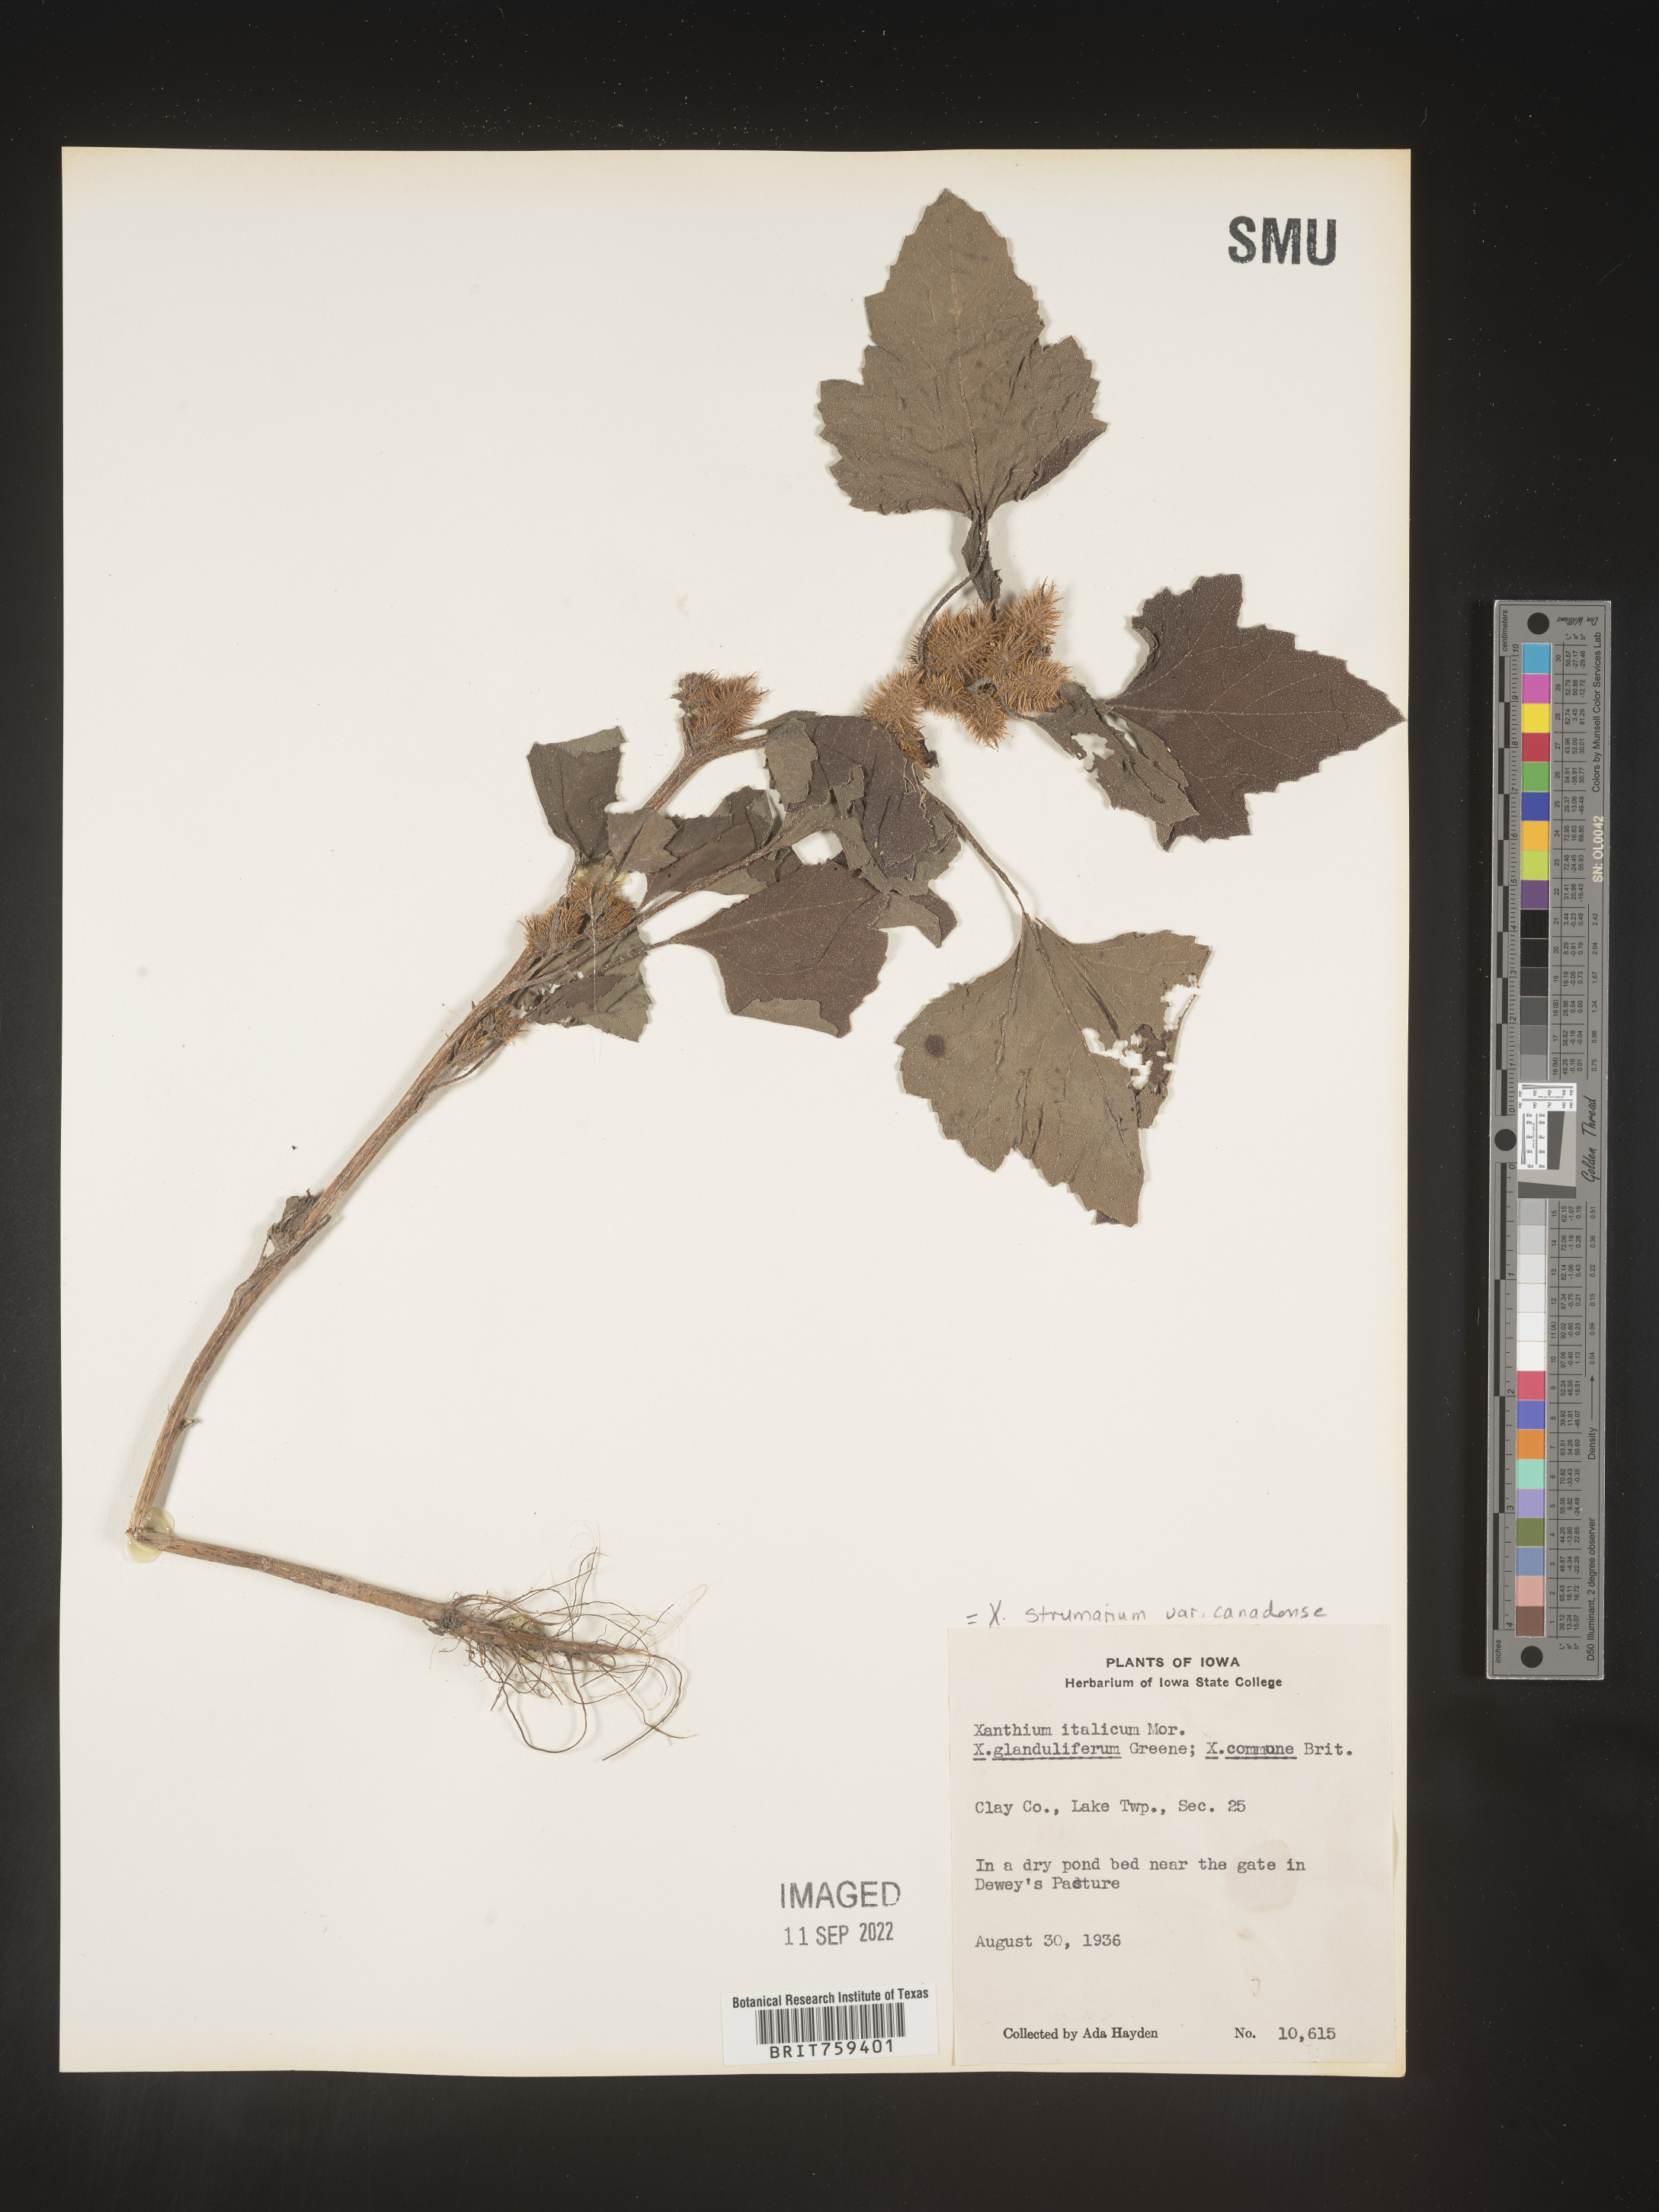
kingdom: Plantae
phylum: Tracheophyta
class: Magnoliopsida
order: Asterales
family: Asteraceae
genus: Xanthium
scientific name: Xanthium orientale
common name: Californian burr
